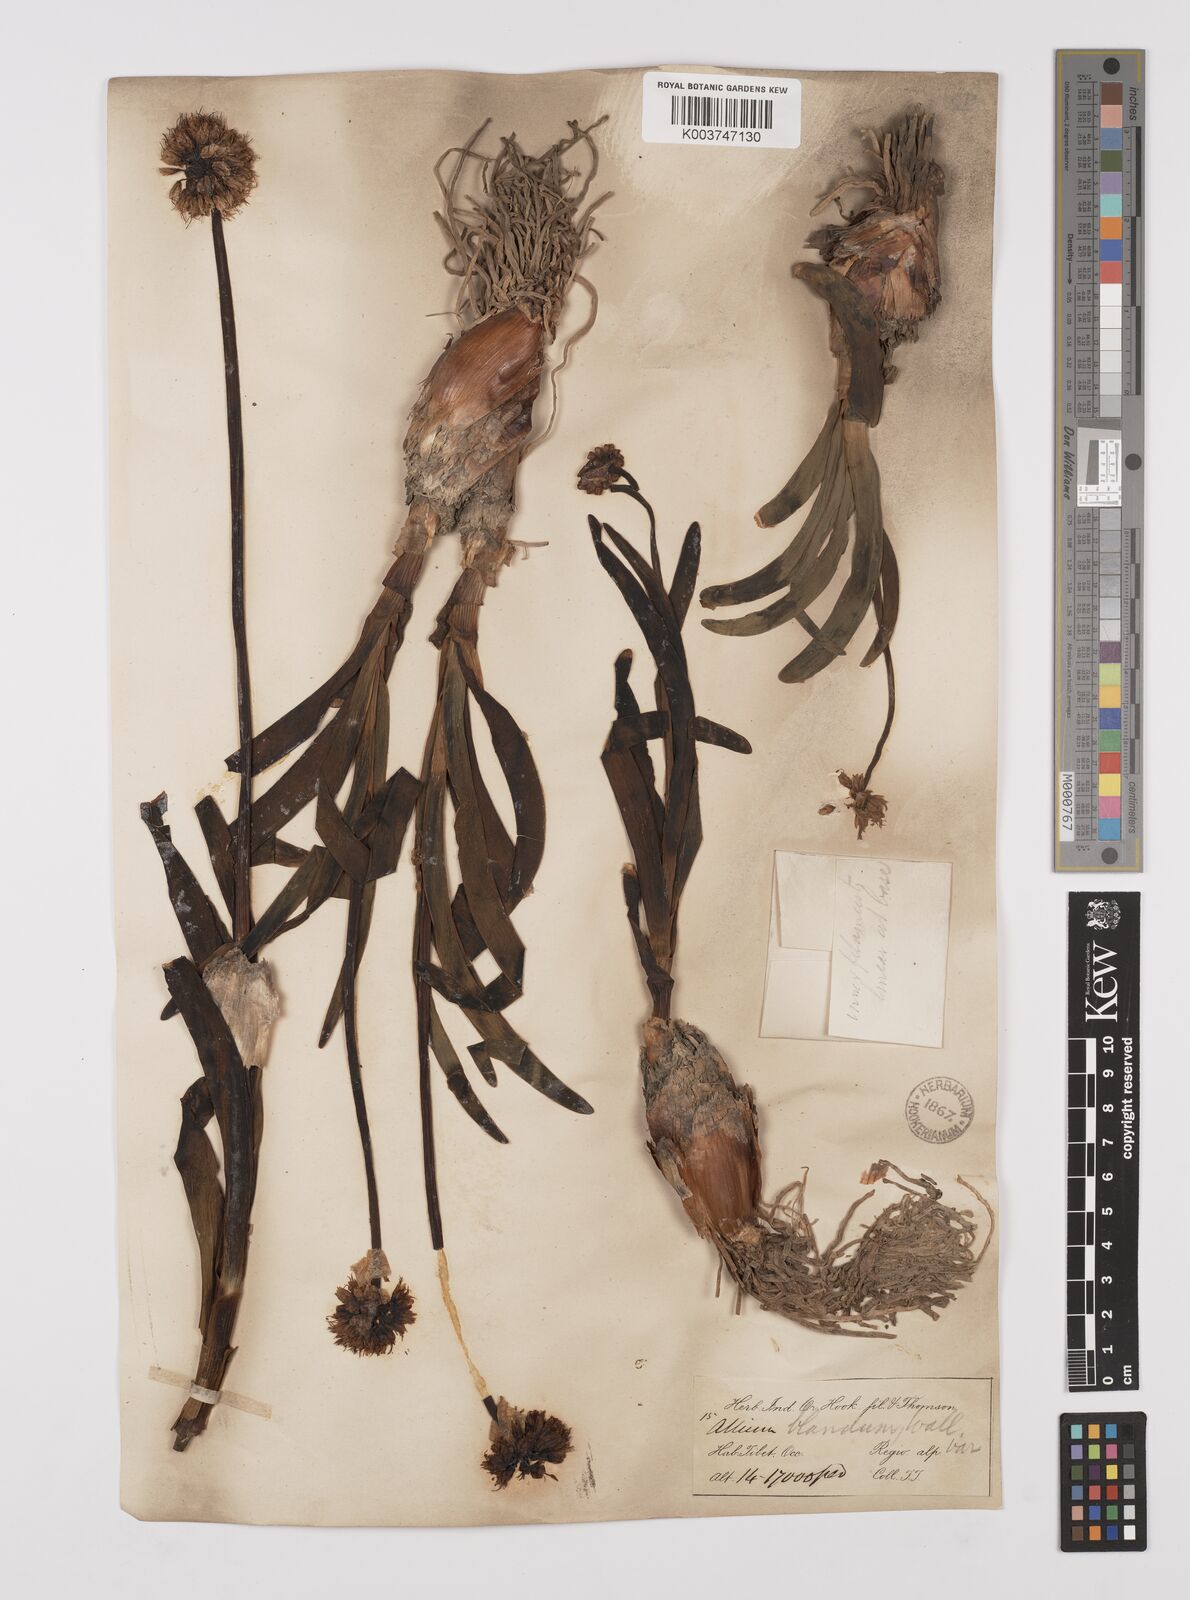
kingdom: Plantae
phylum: Tracheophyta
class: Liliopsida
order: Asparagales
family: Amaryllidaceae
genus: Allium
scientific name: Allium carolinianum
